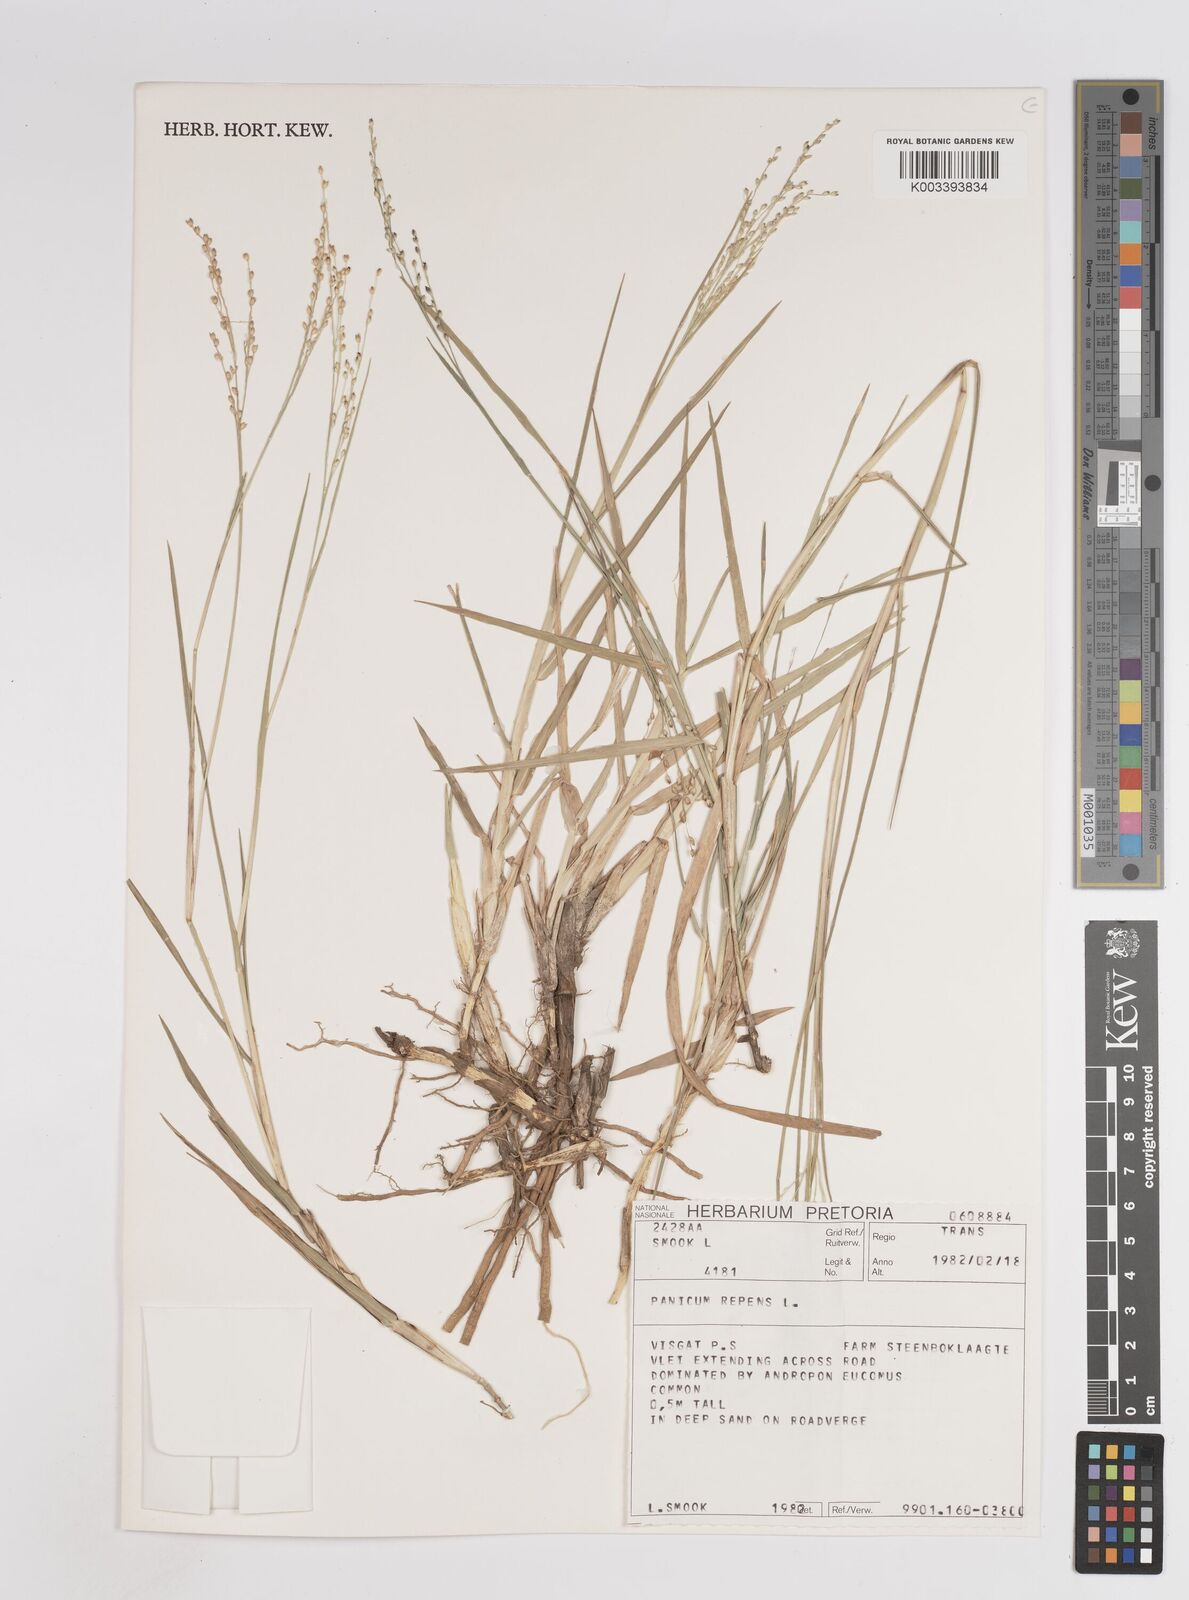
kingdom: Plantae
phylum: Tracheophyta
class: Liliopsida
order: Poales
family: Poaceae
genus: Panicum
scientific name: Panicum repens
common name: Torpedo grass
